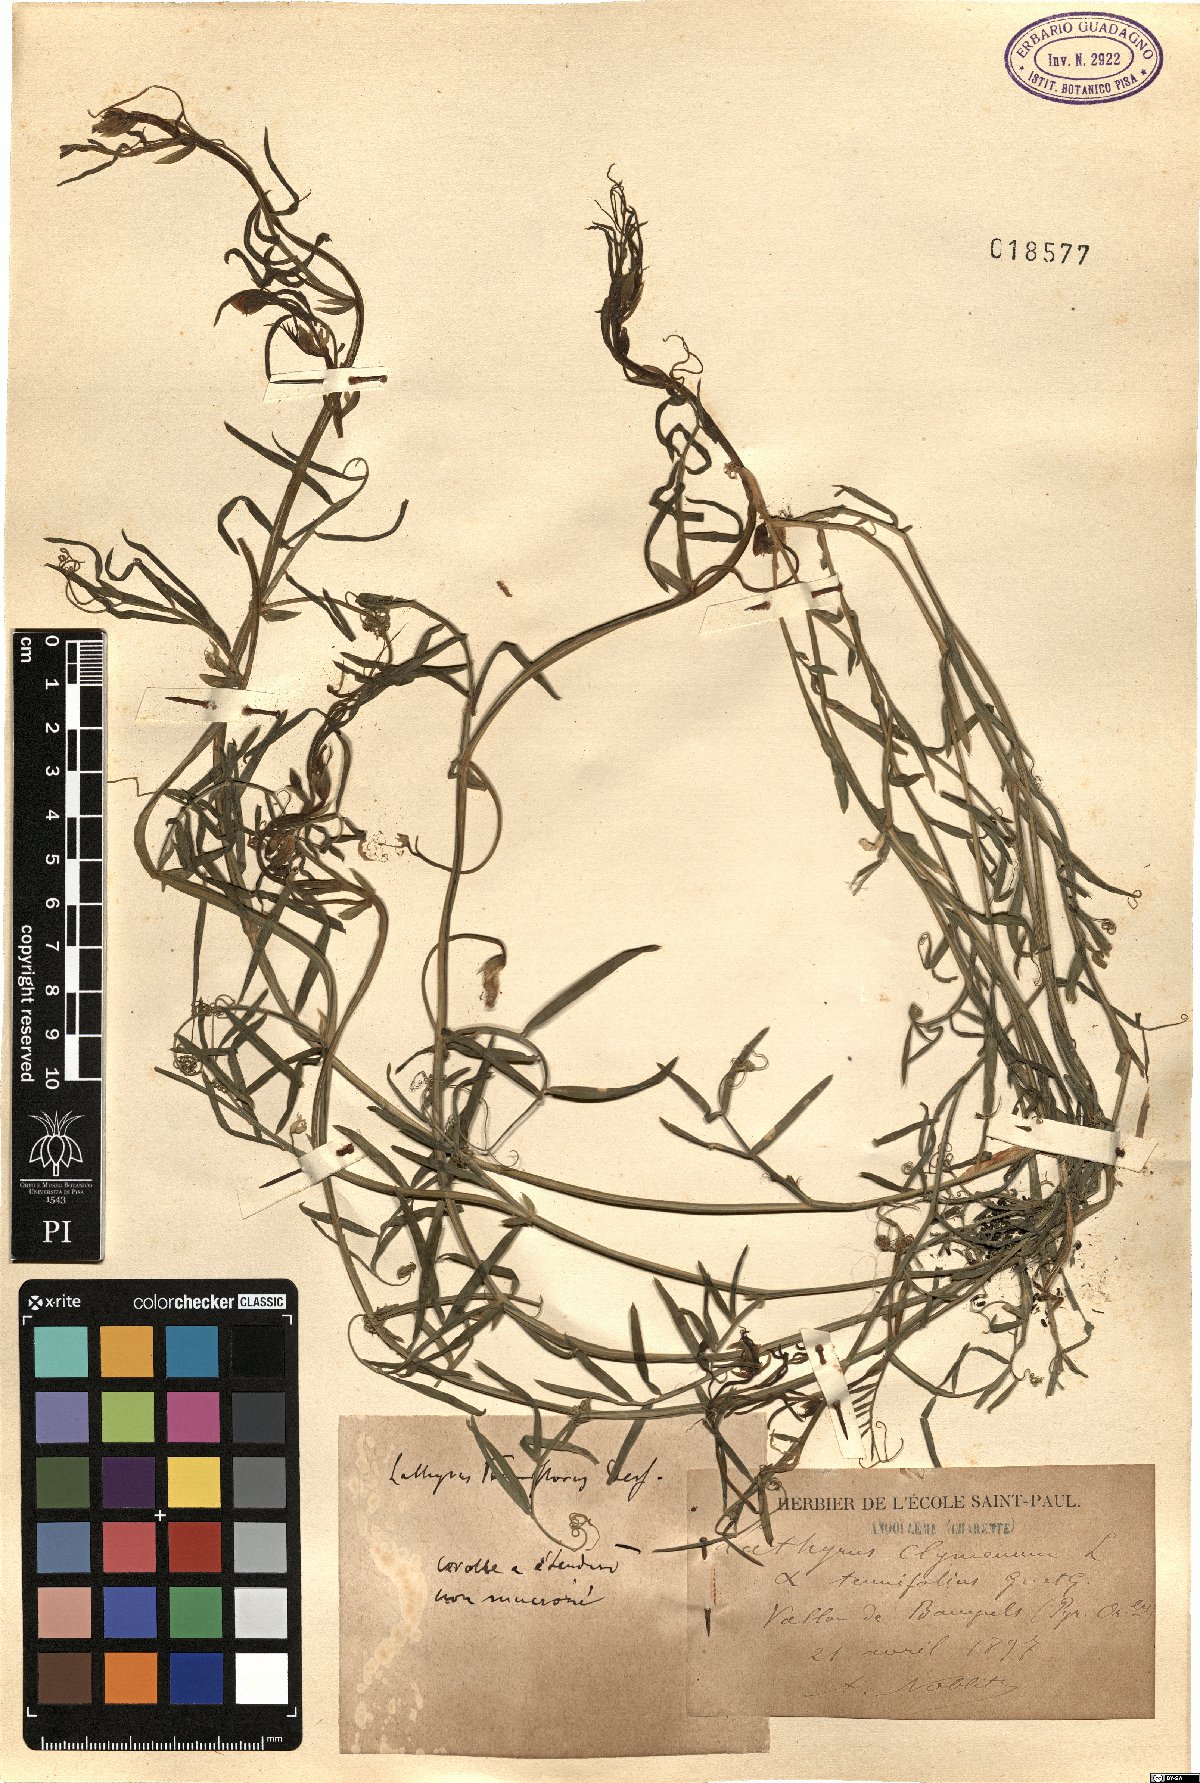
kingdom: Plantae
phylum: Tracheophyta
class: Magnoliopsida
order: Fabales
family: Fabaceae
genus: Lathyrus
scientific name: Lathyrus clymenum
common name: Spanish vetchling
